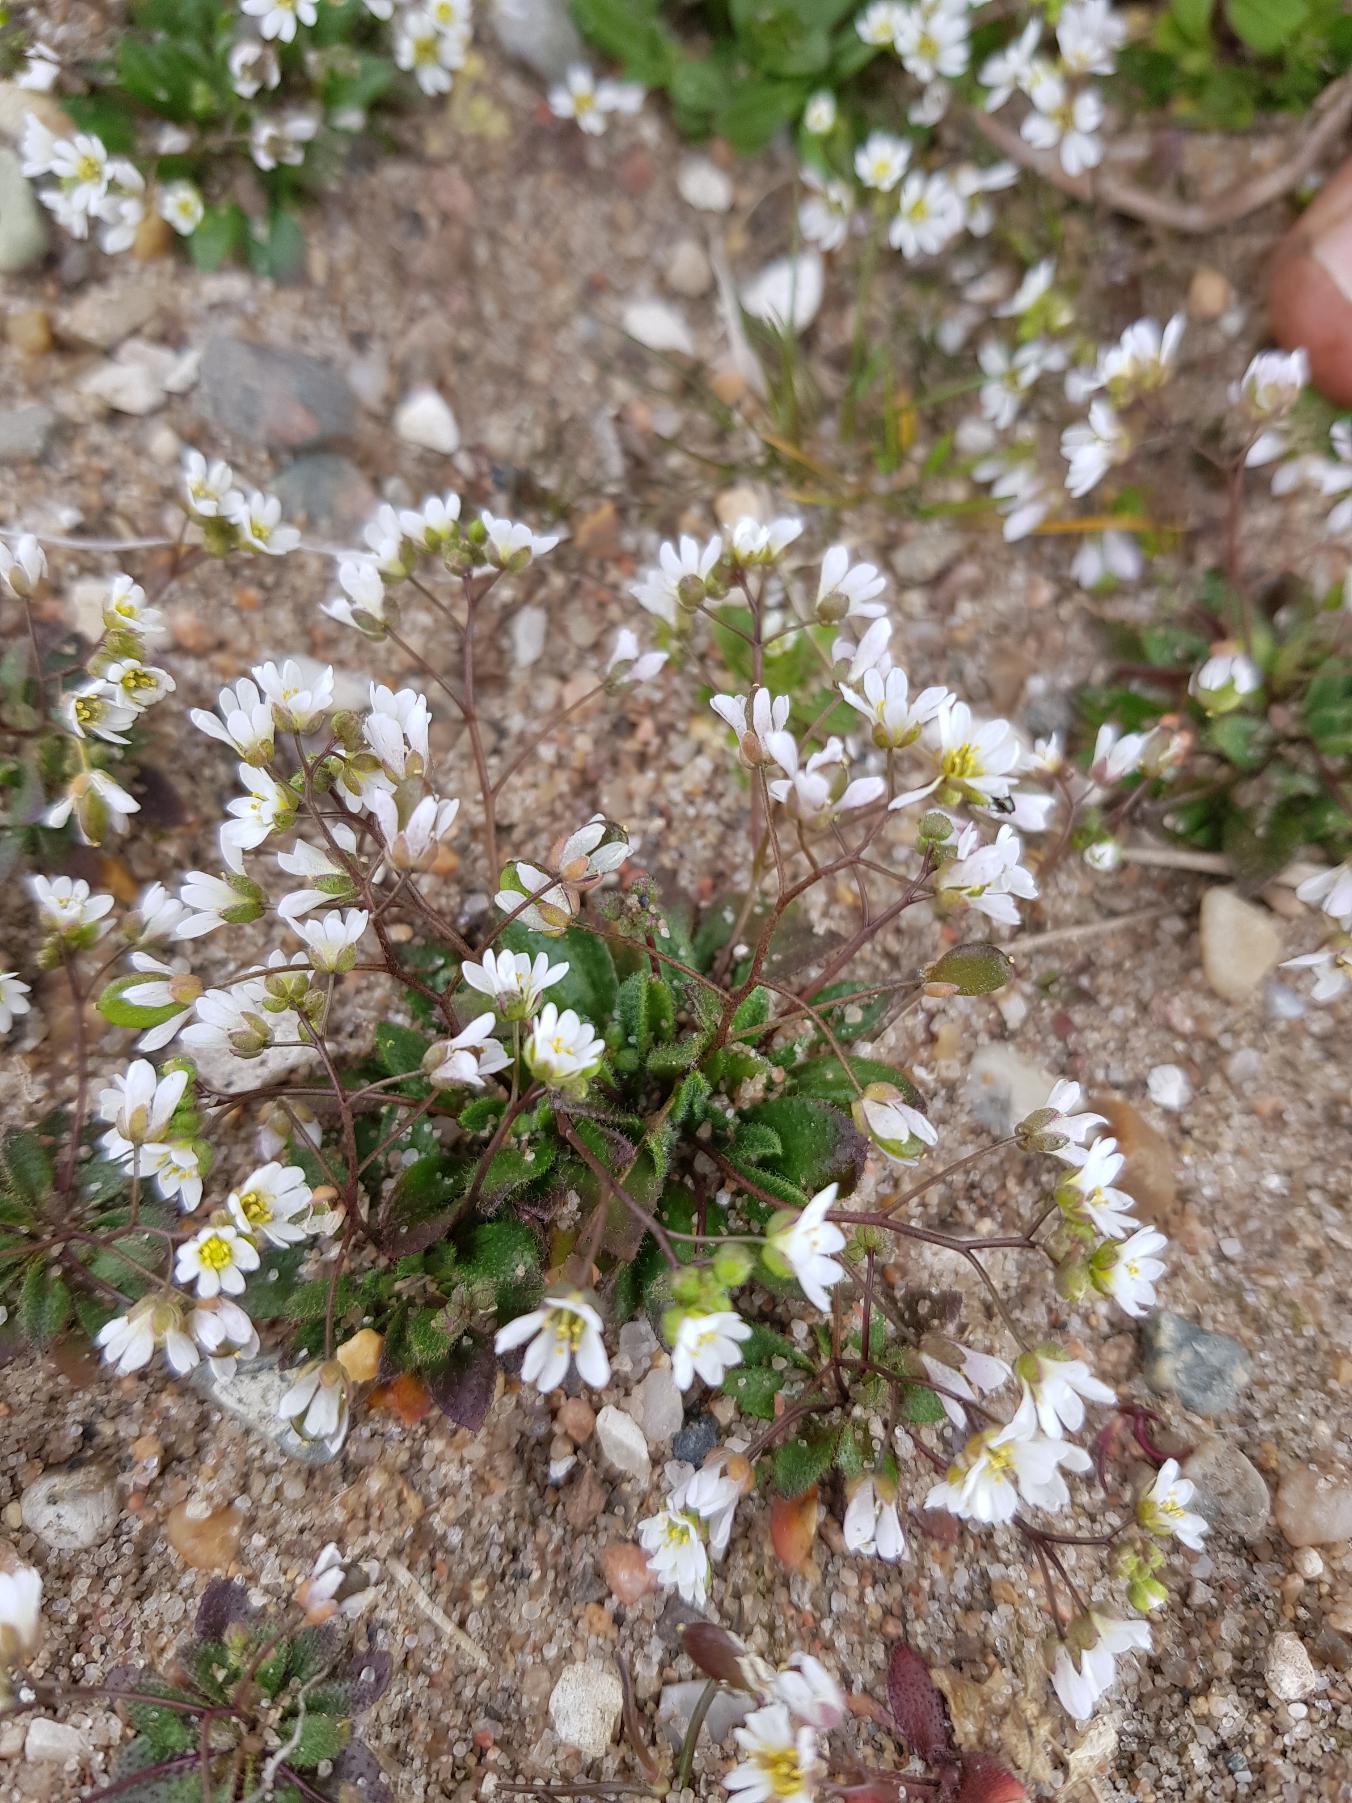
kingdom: Plantae
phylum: Tracheophyta
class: Magnoliopsida
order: Brassicales
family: Brassicaceae
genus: Draba
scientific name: Draba verna
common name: Vår-gæslingeblomst
